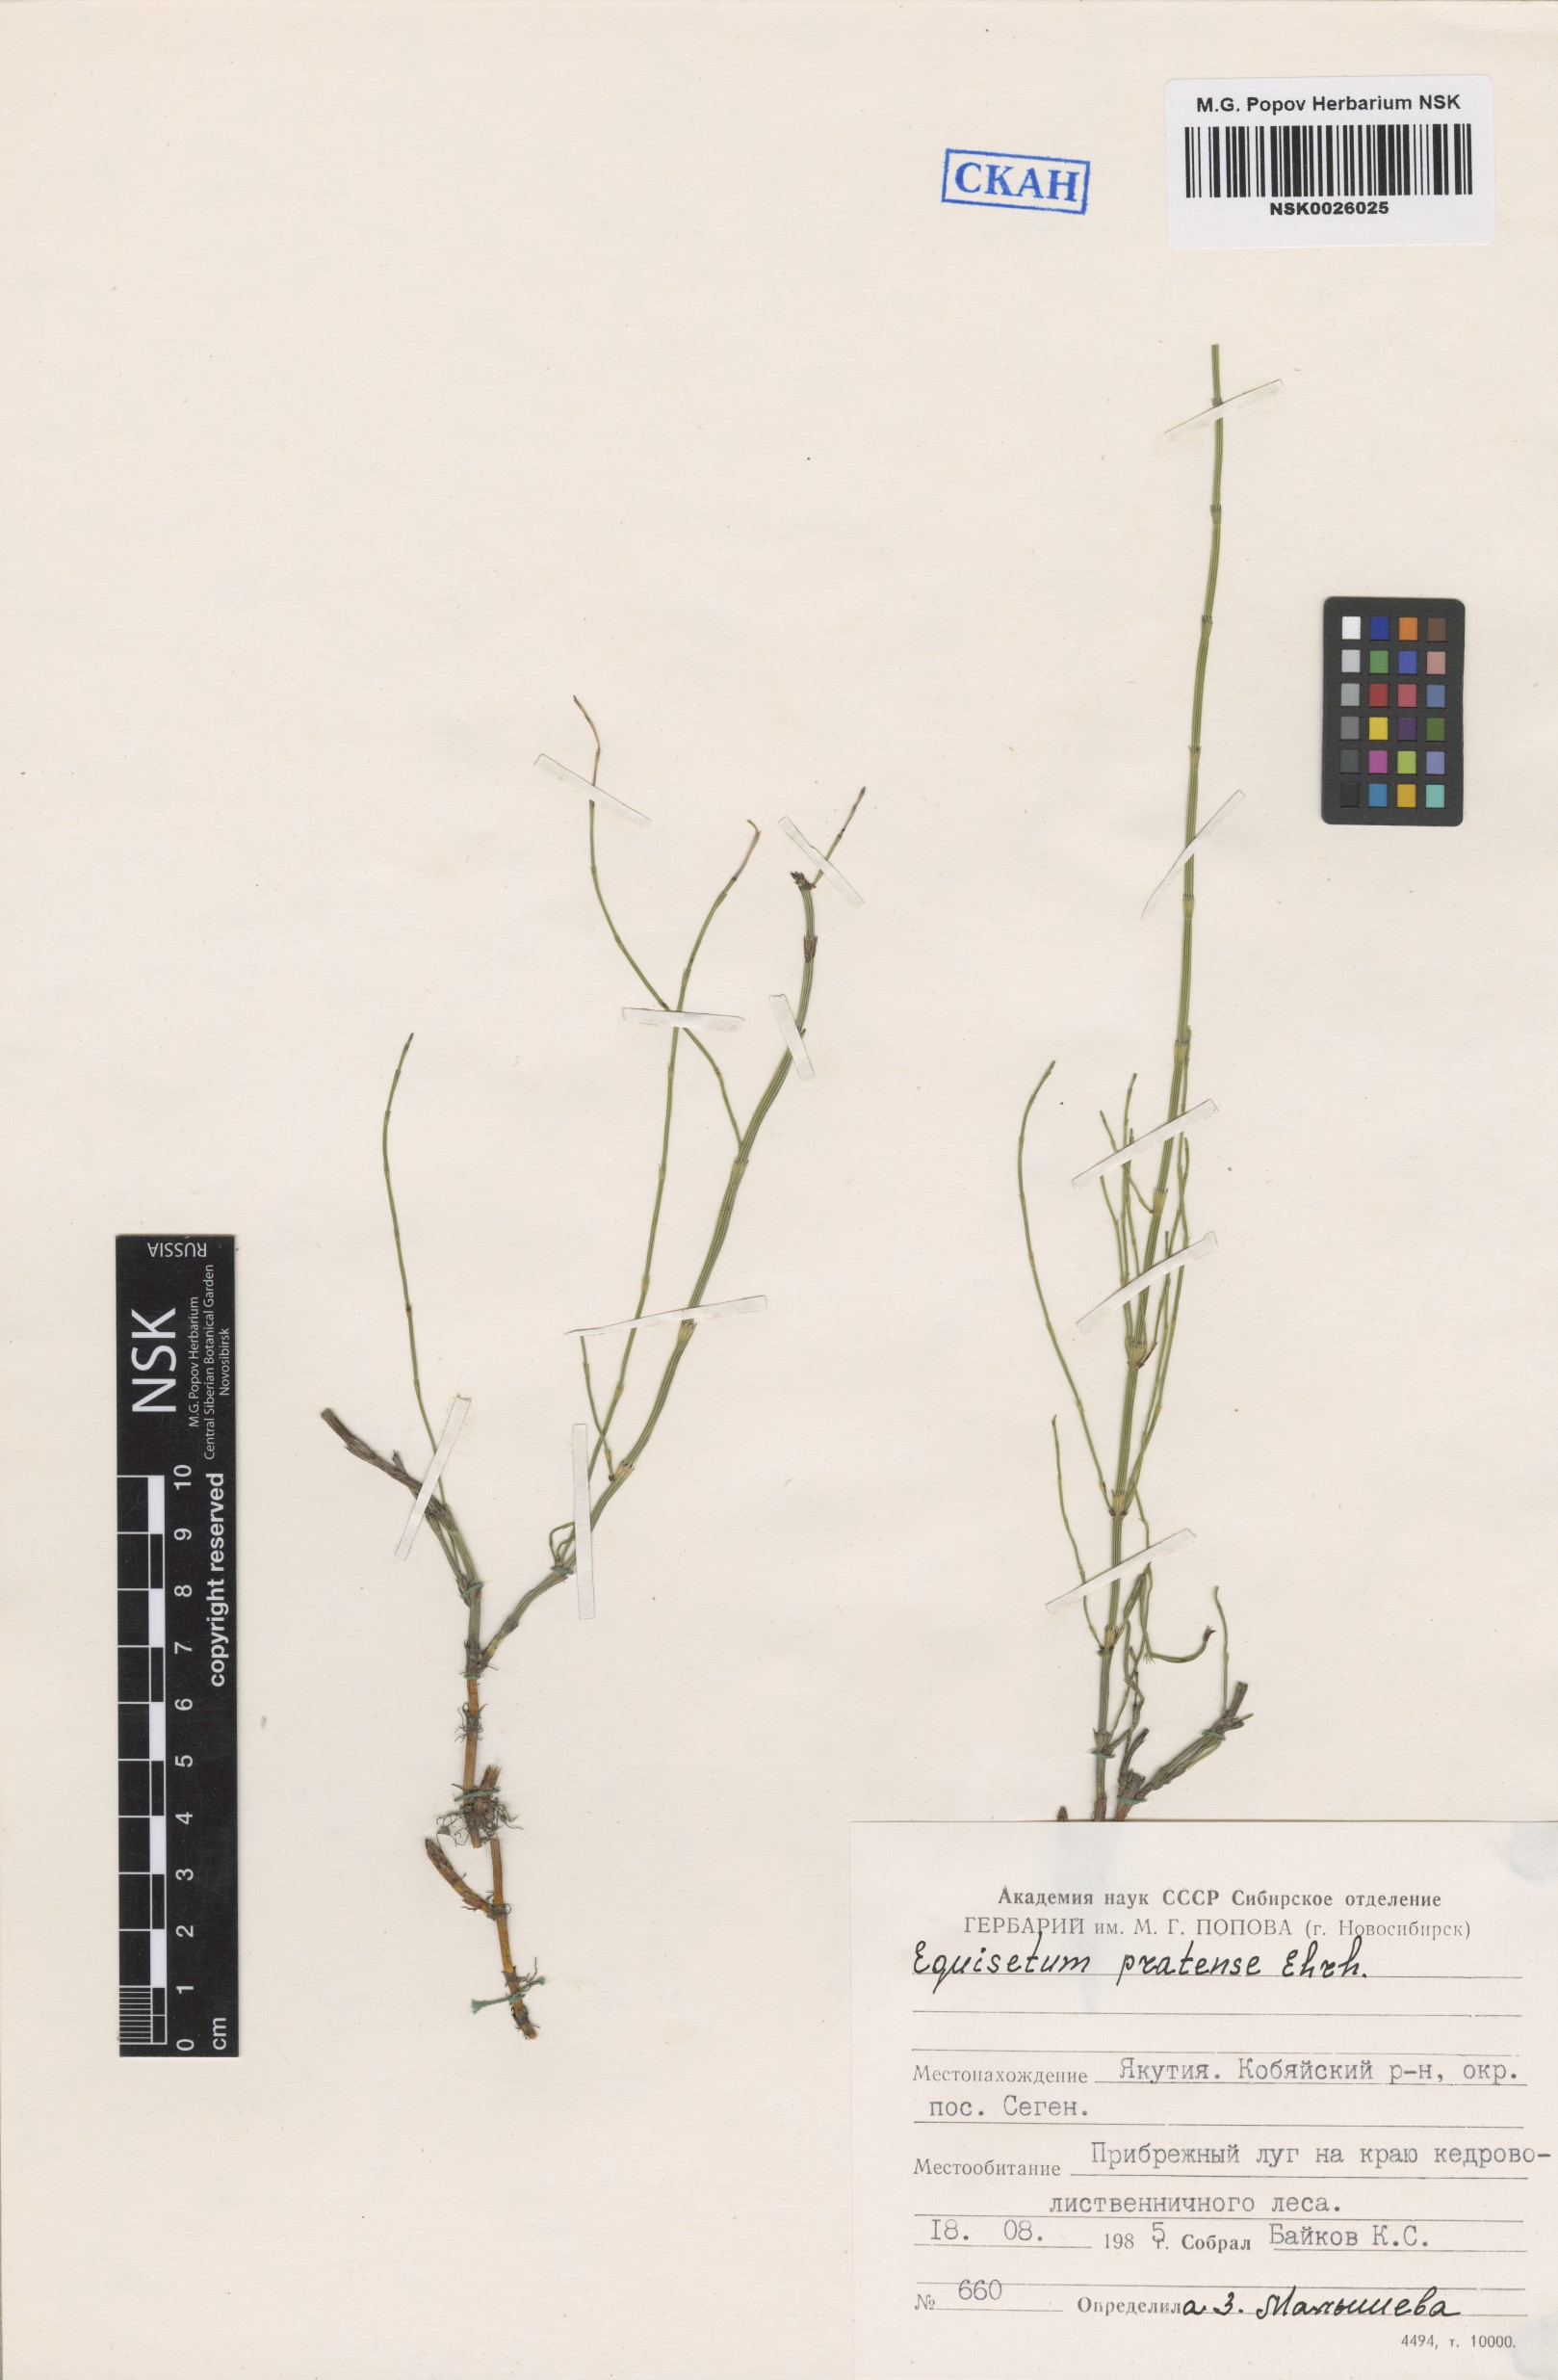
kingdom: Plantae
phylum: Tracheophyta
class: Polypodiopsida
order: Equisetales
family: Equisetaceae
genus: Equisetum
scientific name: Equisetum pratense
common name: Meadow horsetail
